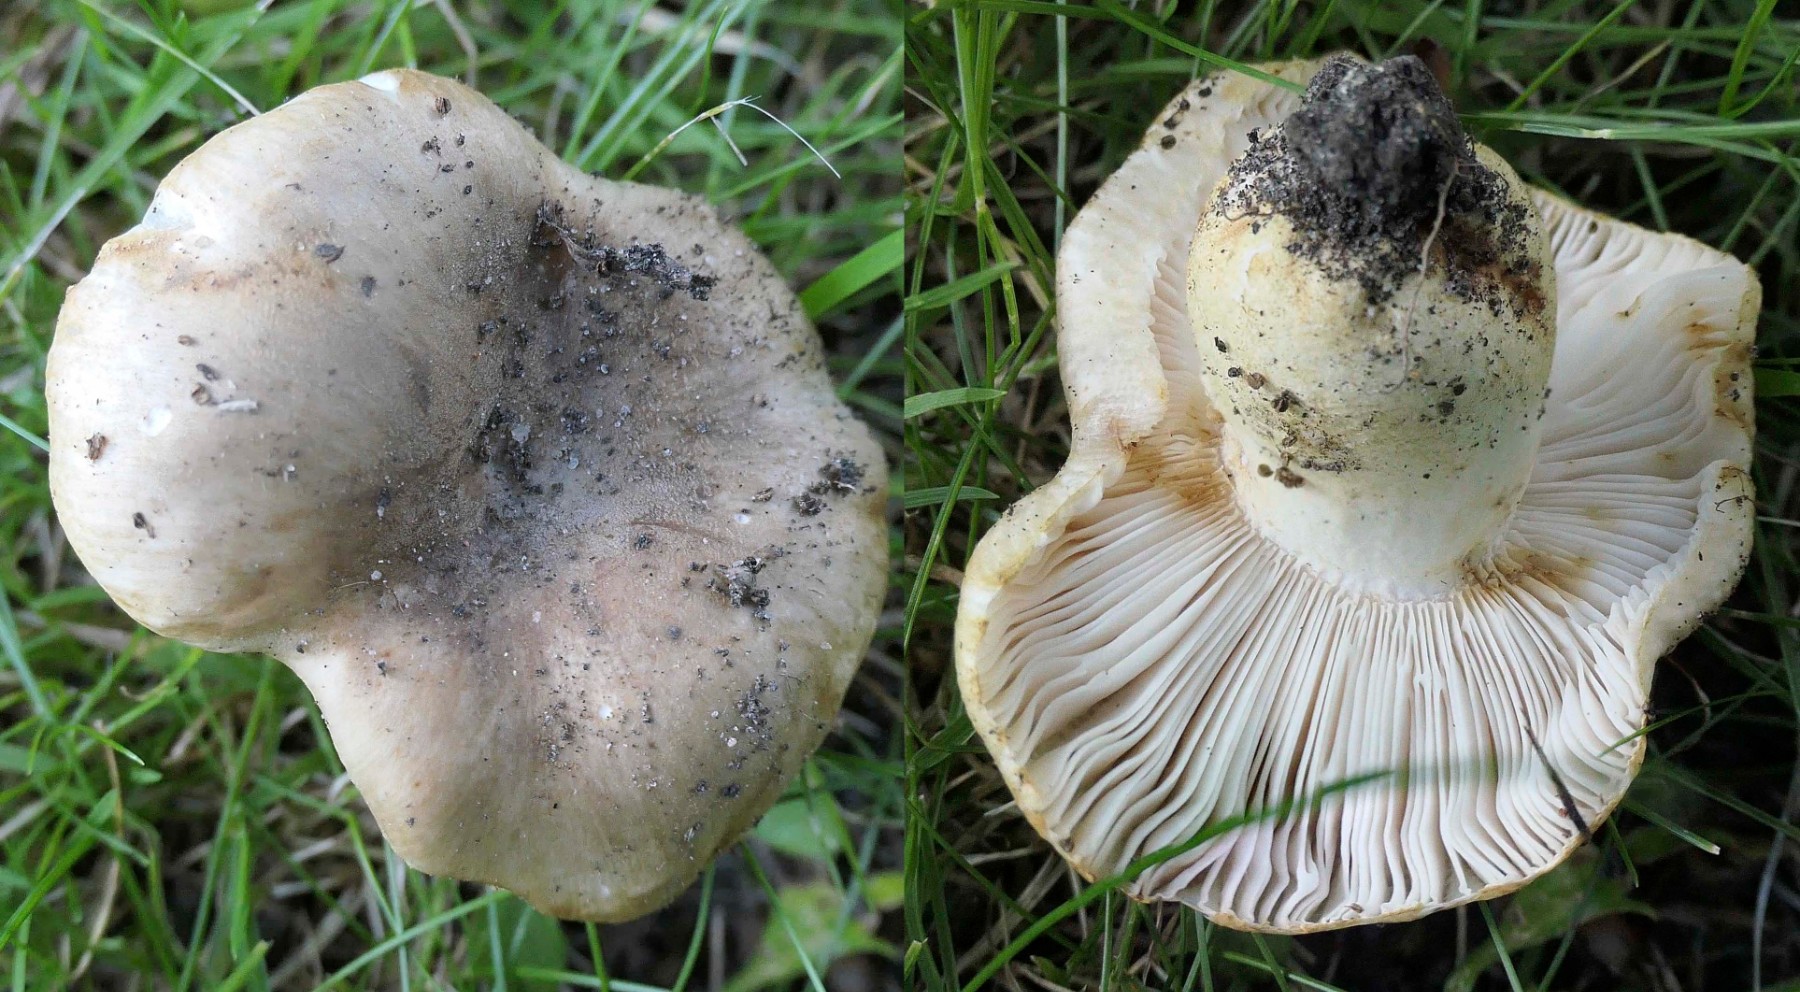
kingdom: Fungi
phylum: Basidiomycota
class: Agaricomycetes
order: Russulales
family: Russulaceae
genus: Russula
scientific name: Russula insignis
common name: gulfodet kam-skørhat
